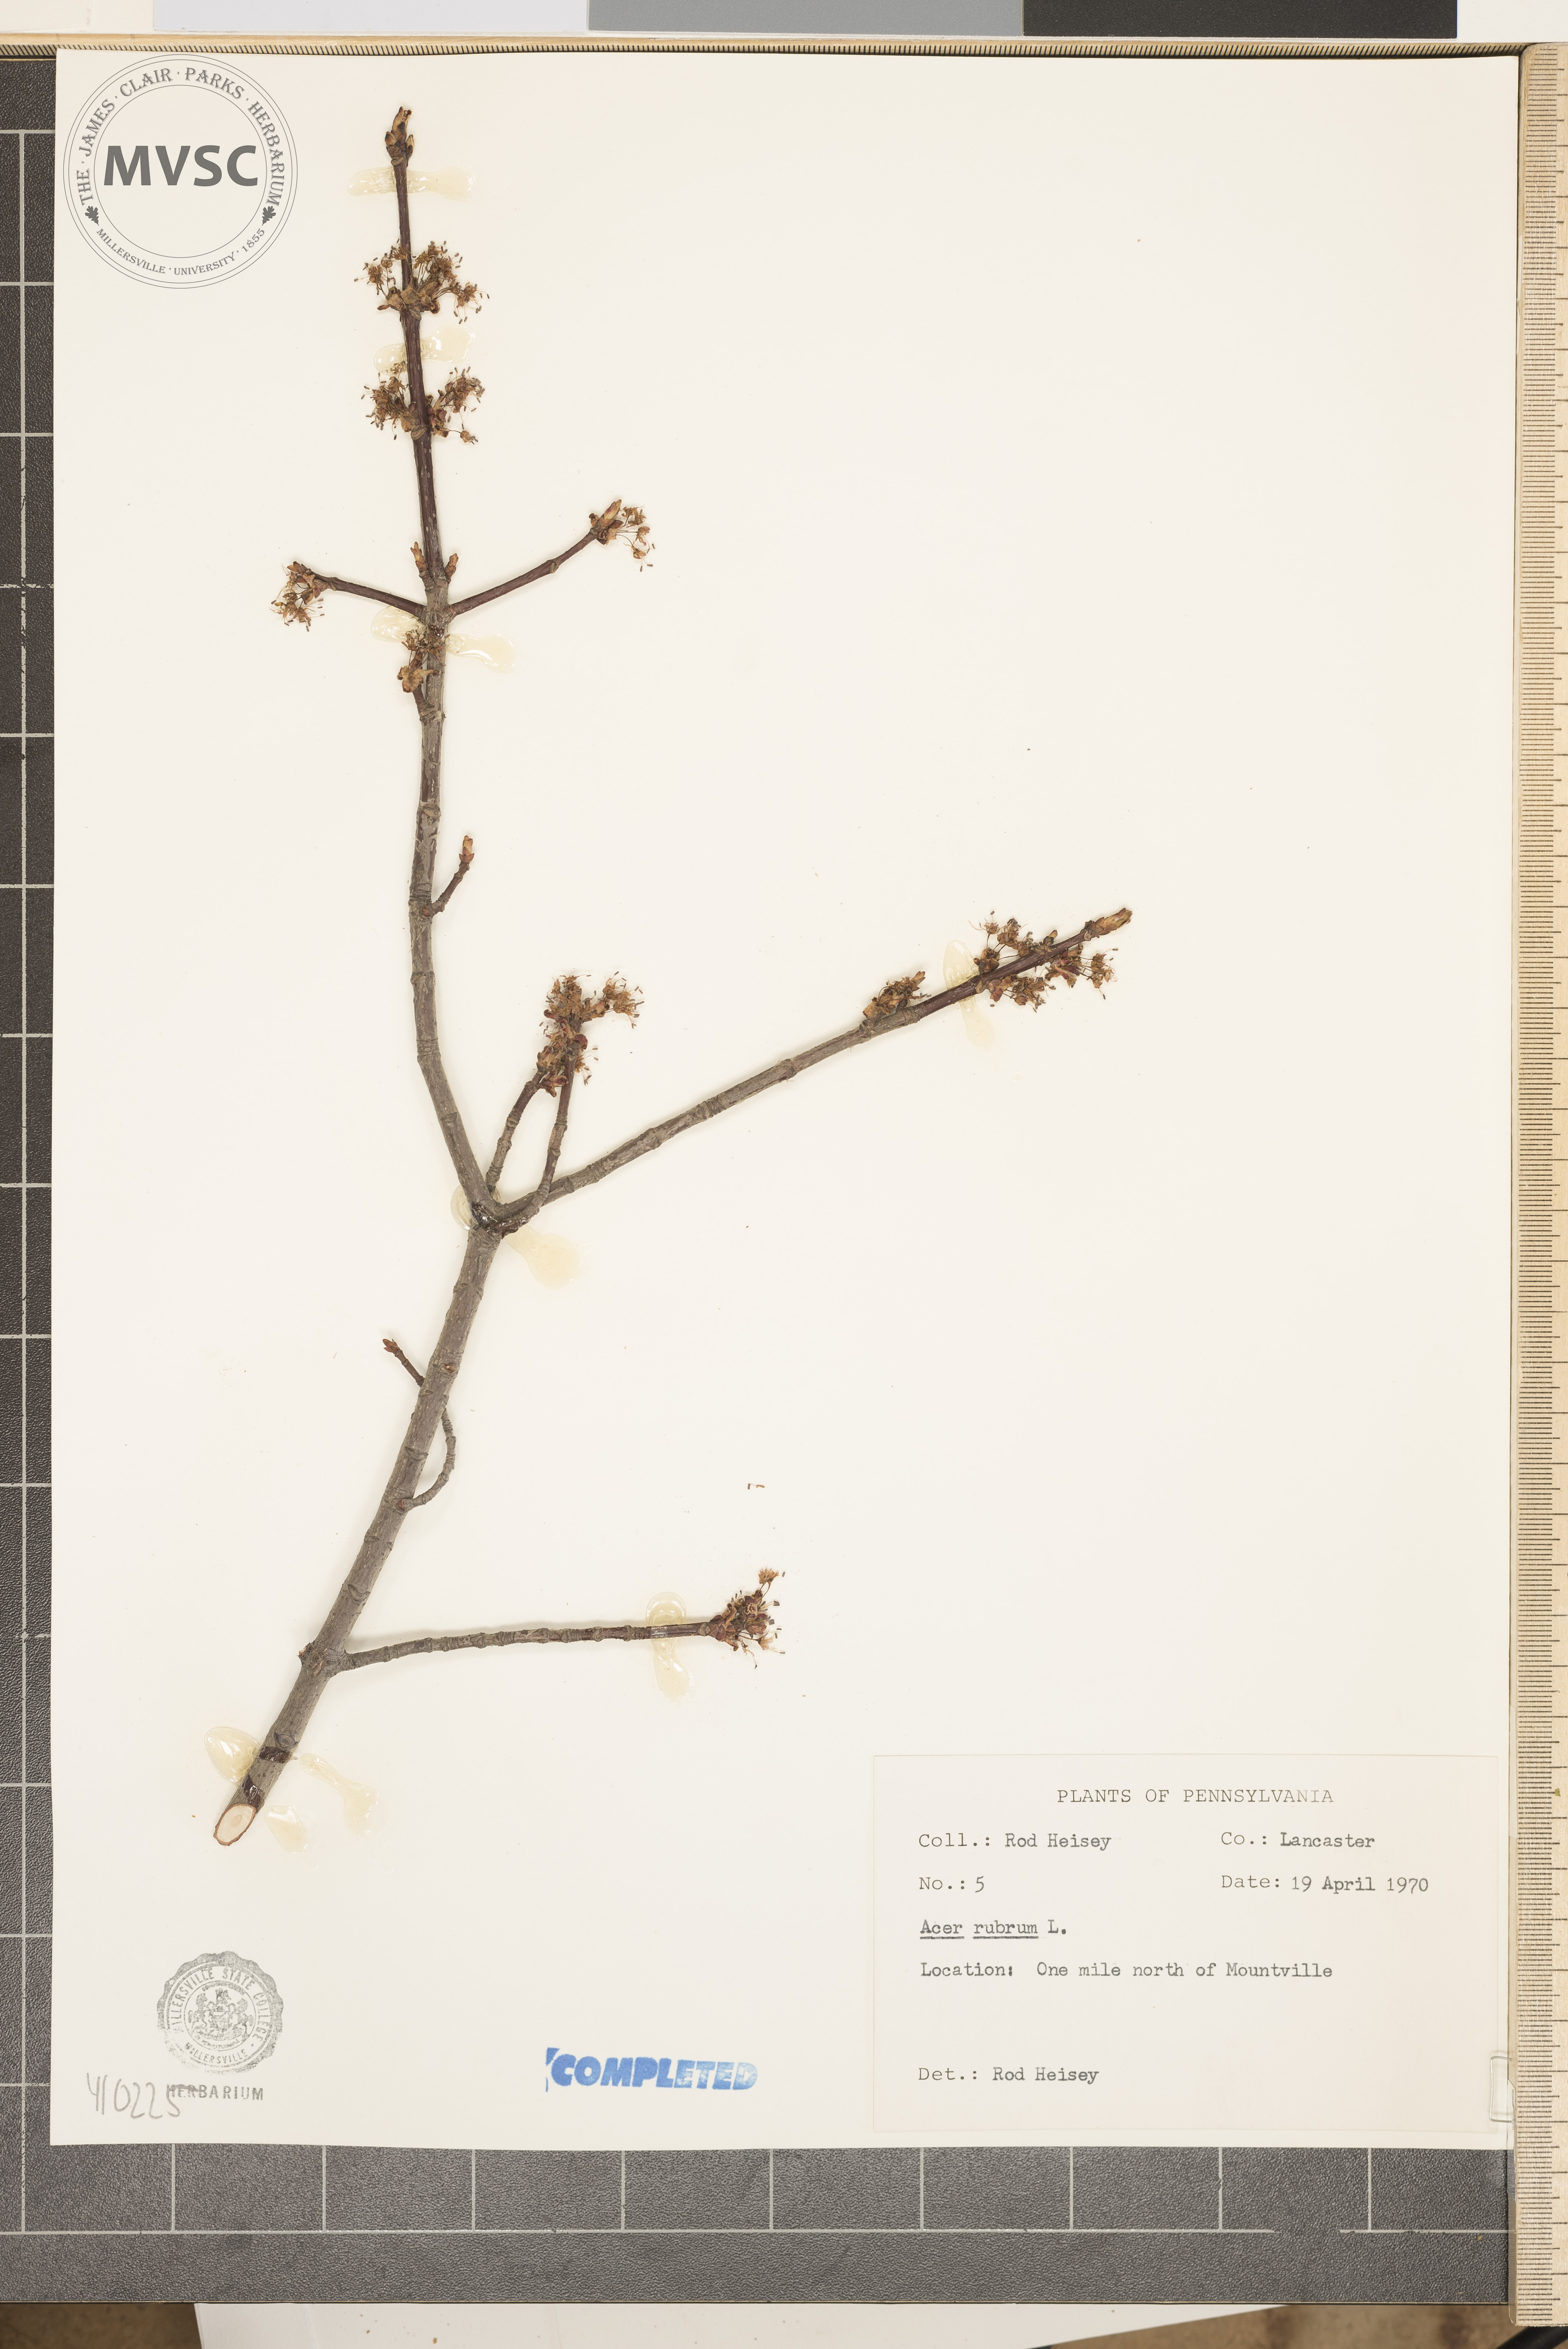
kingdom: Plantae
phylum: Tracheophyta
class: Magnoliopsida
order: Sapindales
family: Sapindaceae
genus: Acer
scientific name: Acer rubrum
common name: Red maple
